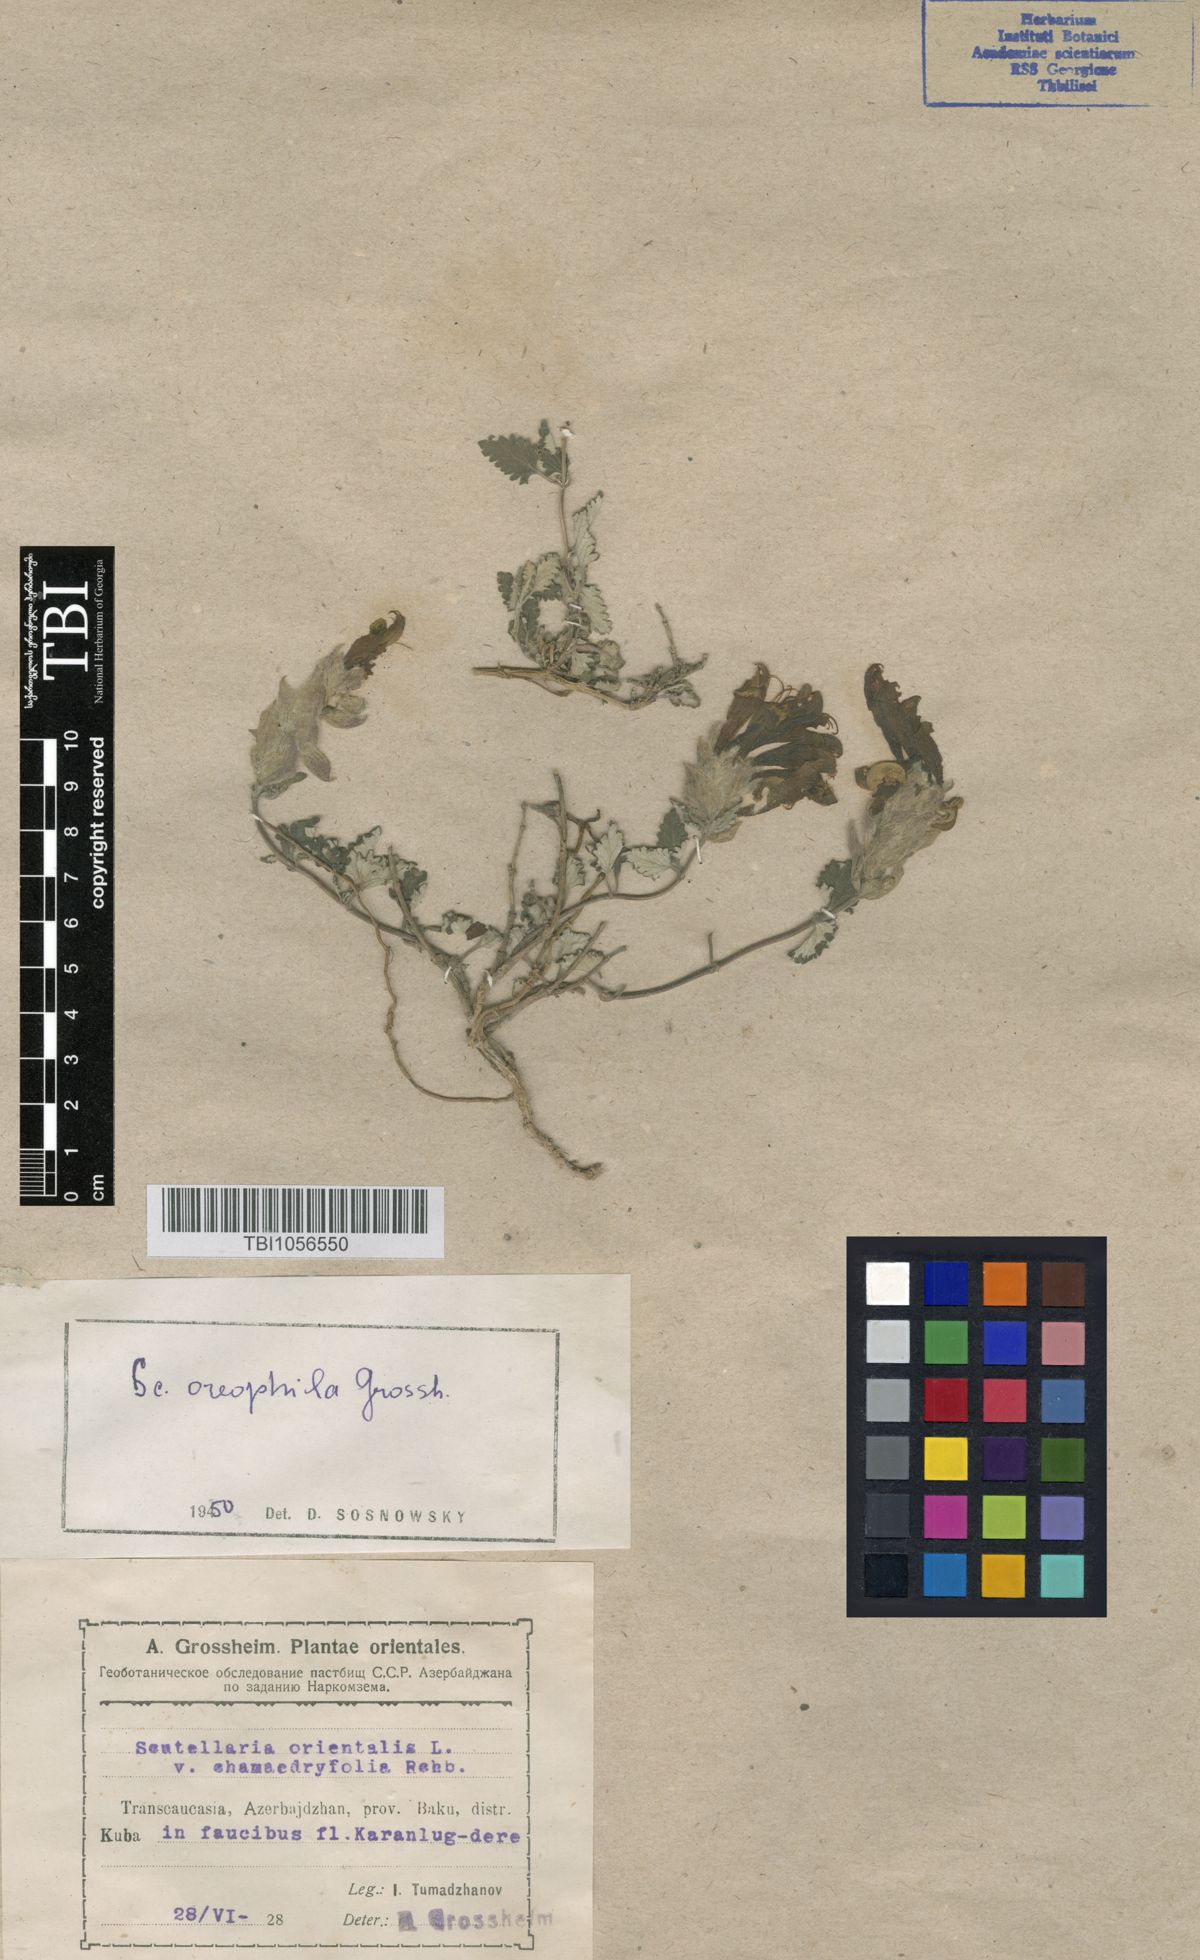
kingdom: Plantae
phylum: Tracheophyta
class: Magnoliopsida
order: Lamiales
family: Lamiaceae
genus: Scutellaria
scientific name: Scutellaria oreophila
